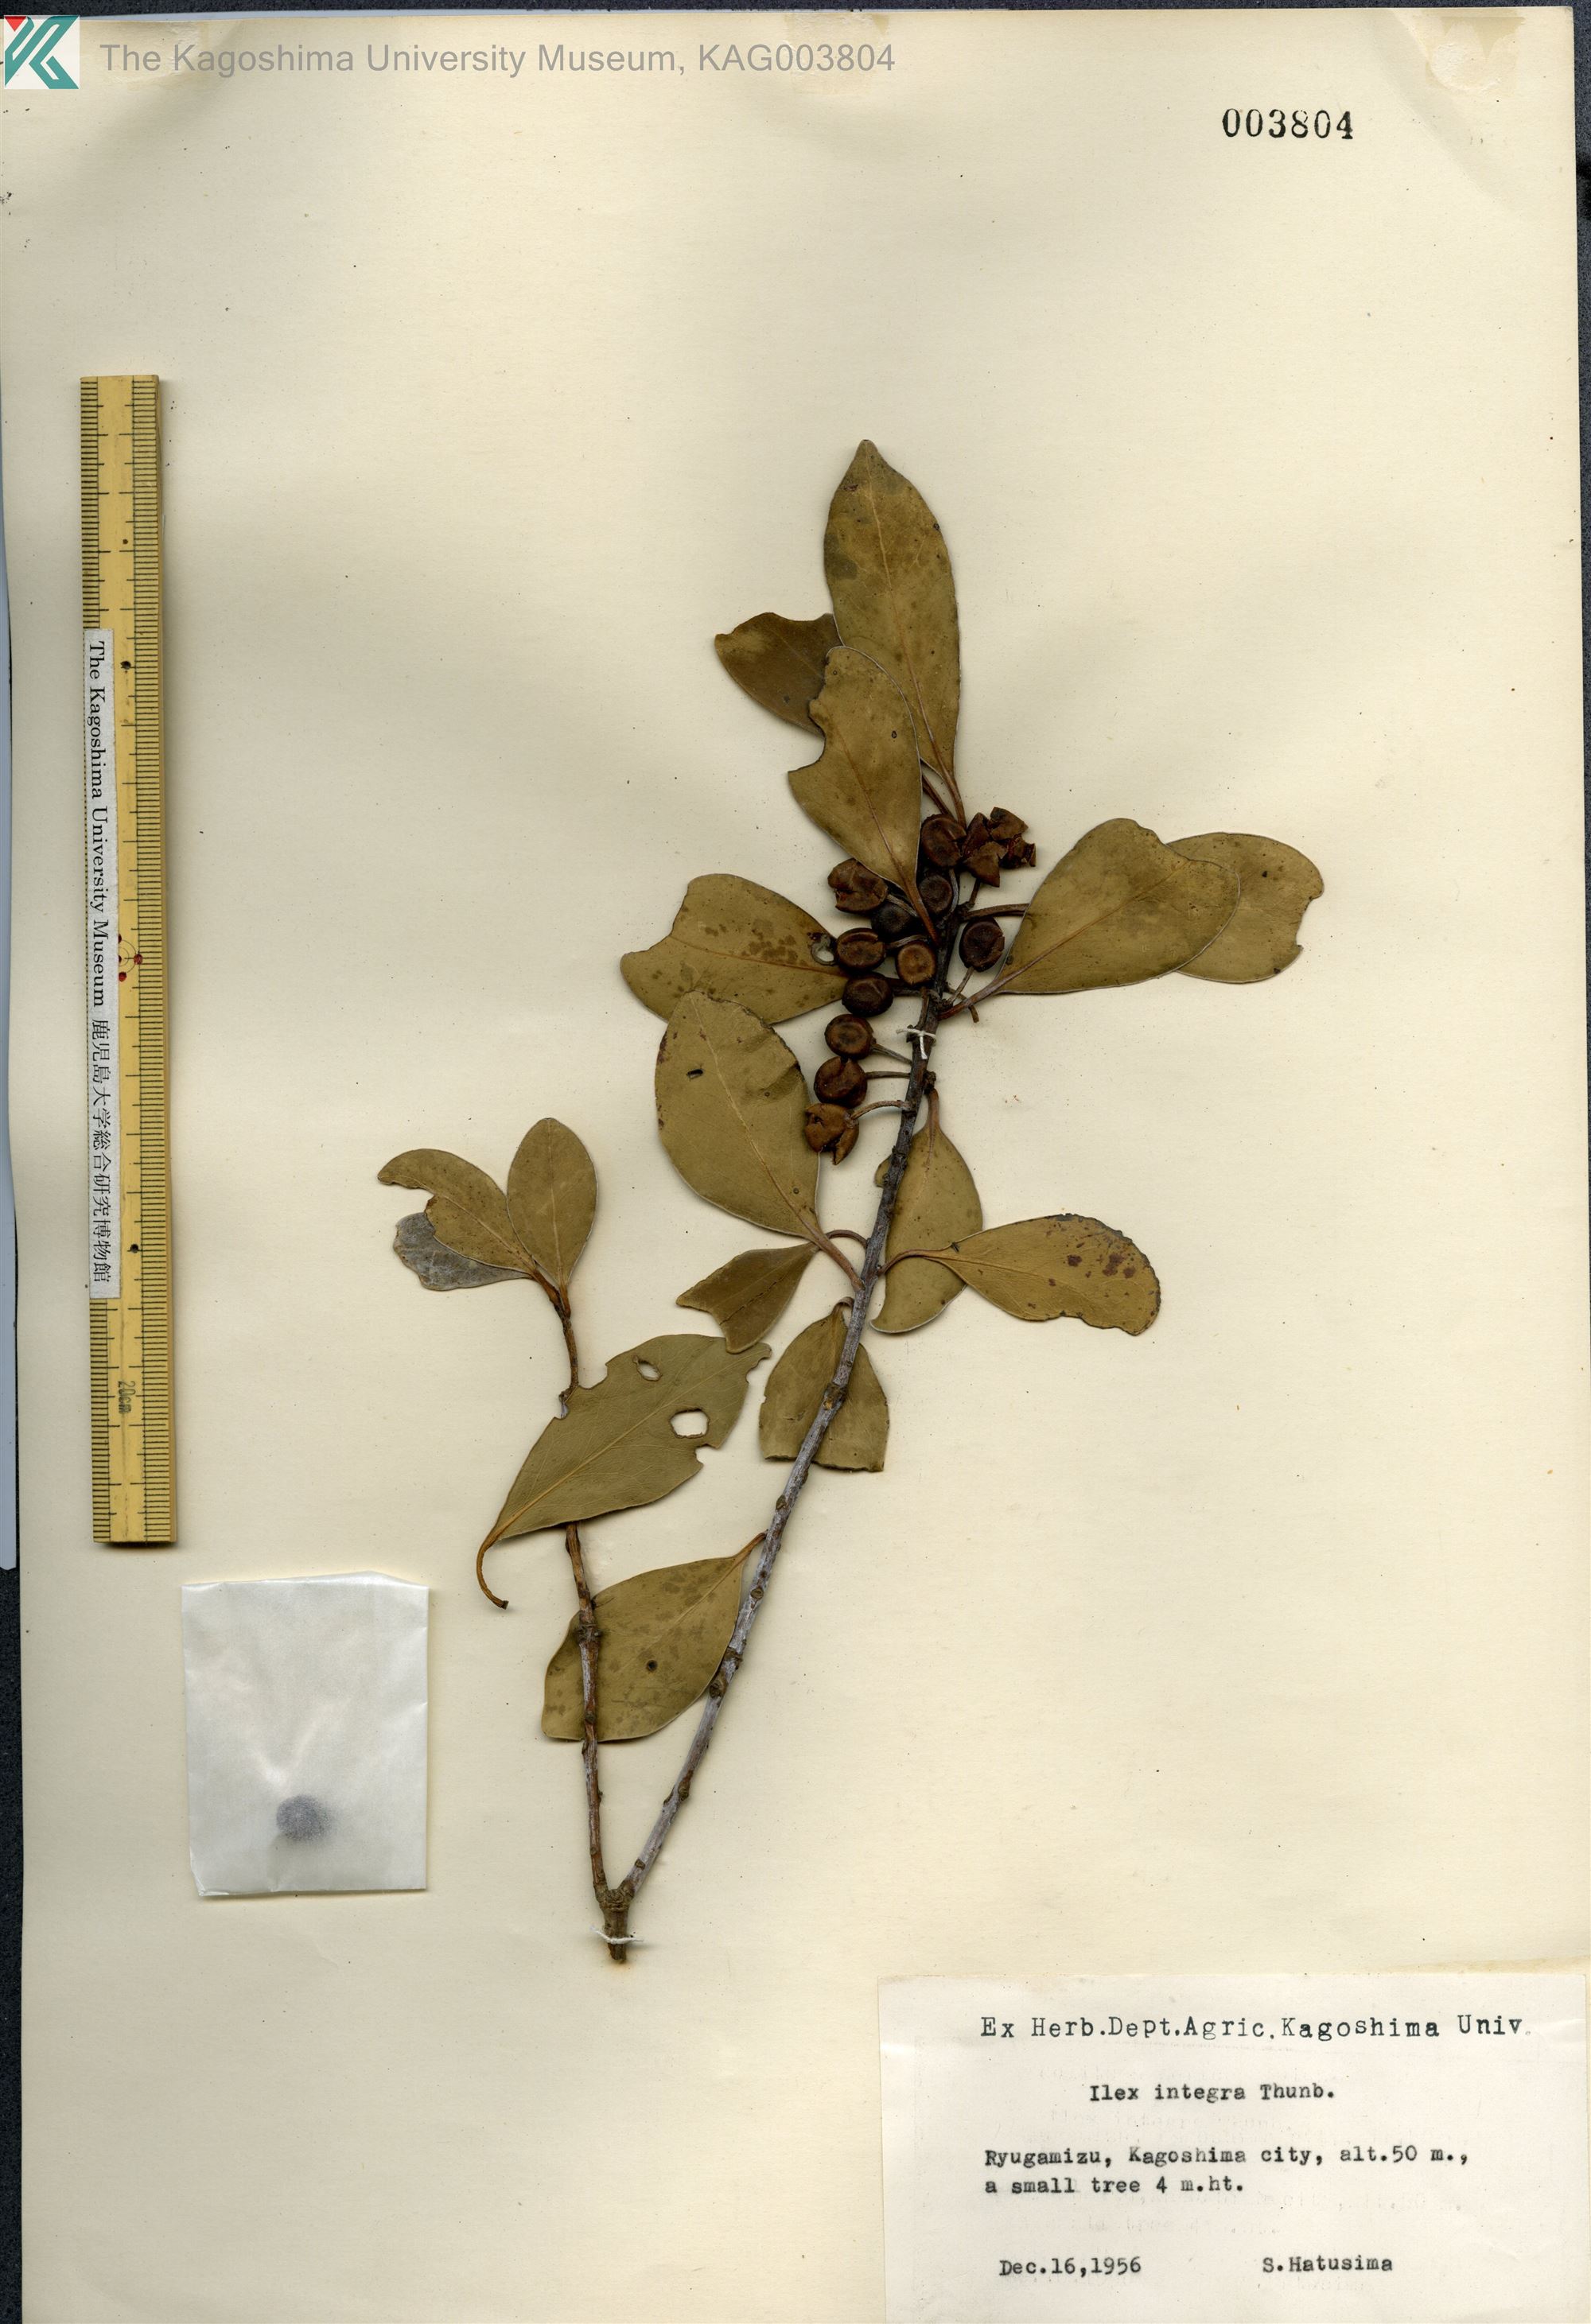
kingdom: Plantae
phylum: Tracheophyta
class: Magnoliopsida
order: Aquifoliales
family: Aquifoliaceae
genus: Ilex
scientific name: Ilex integra
